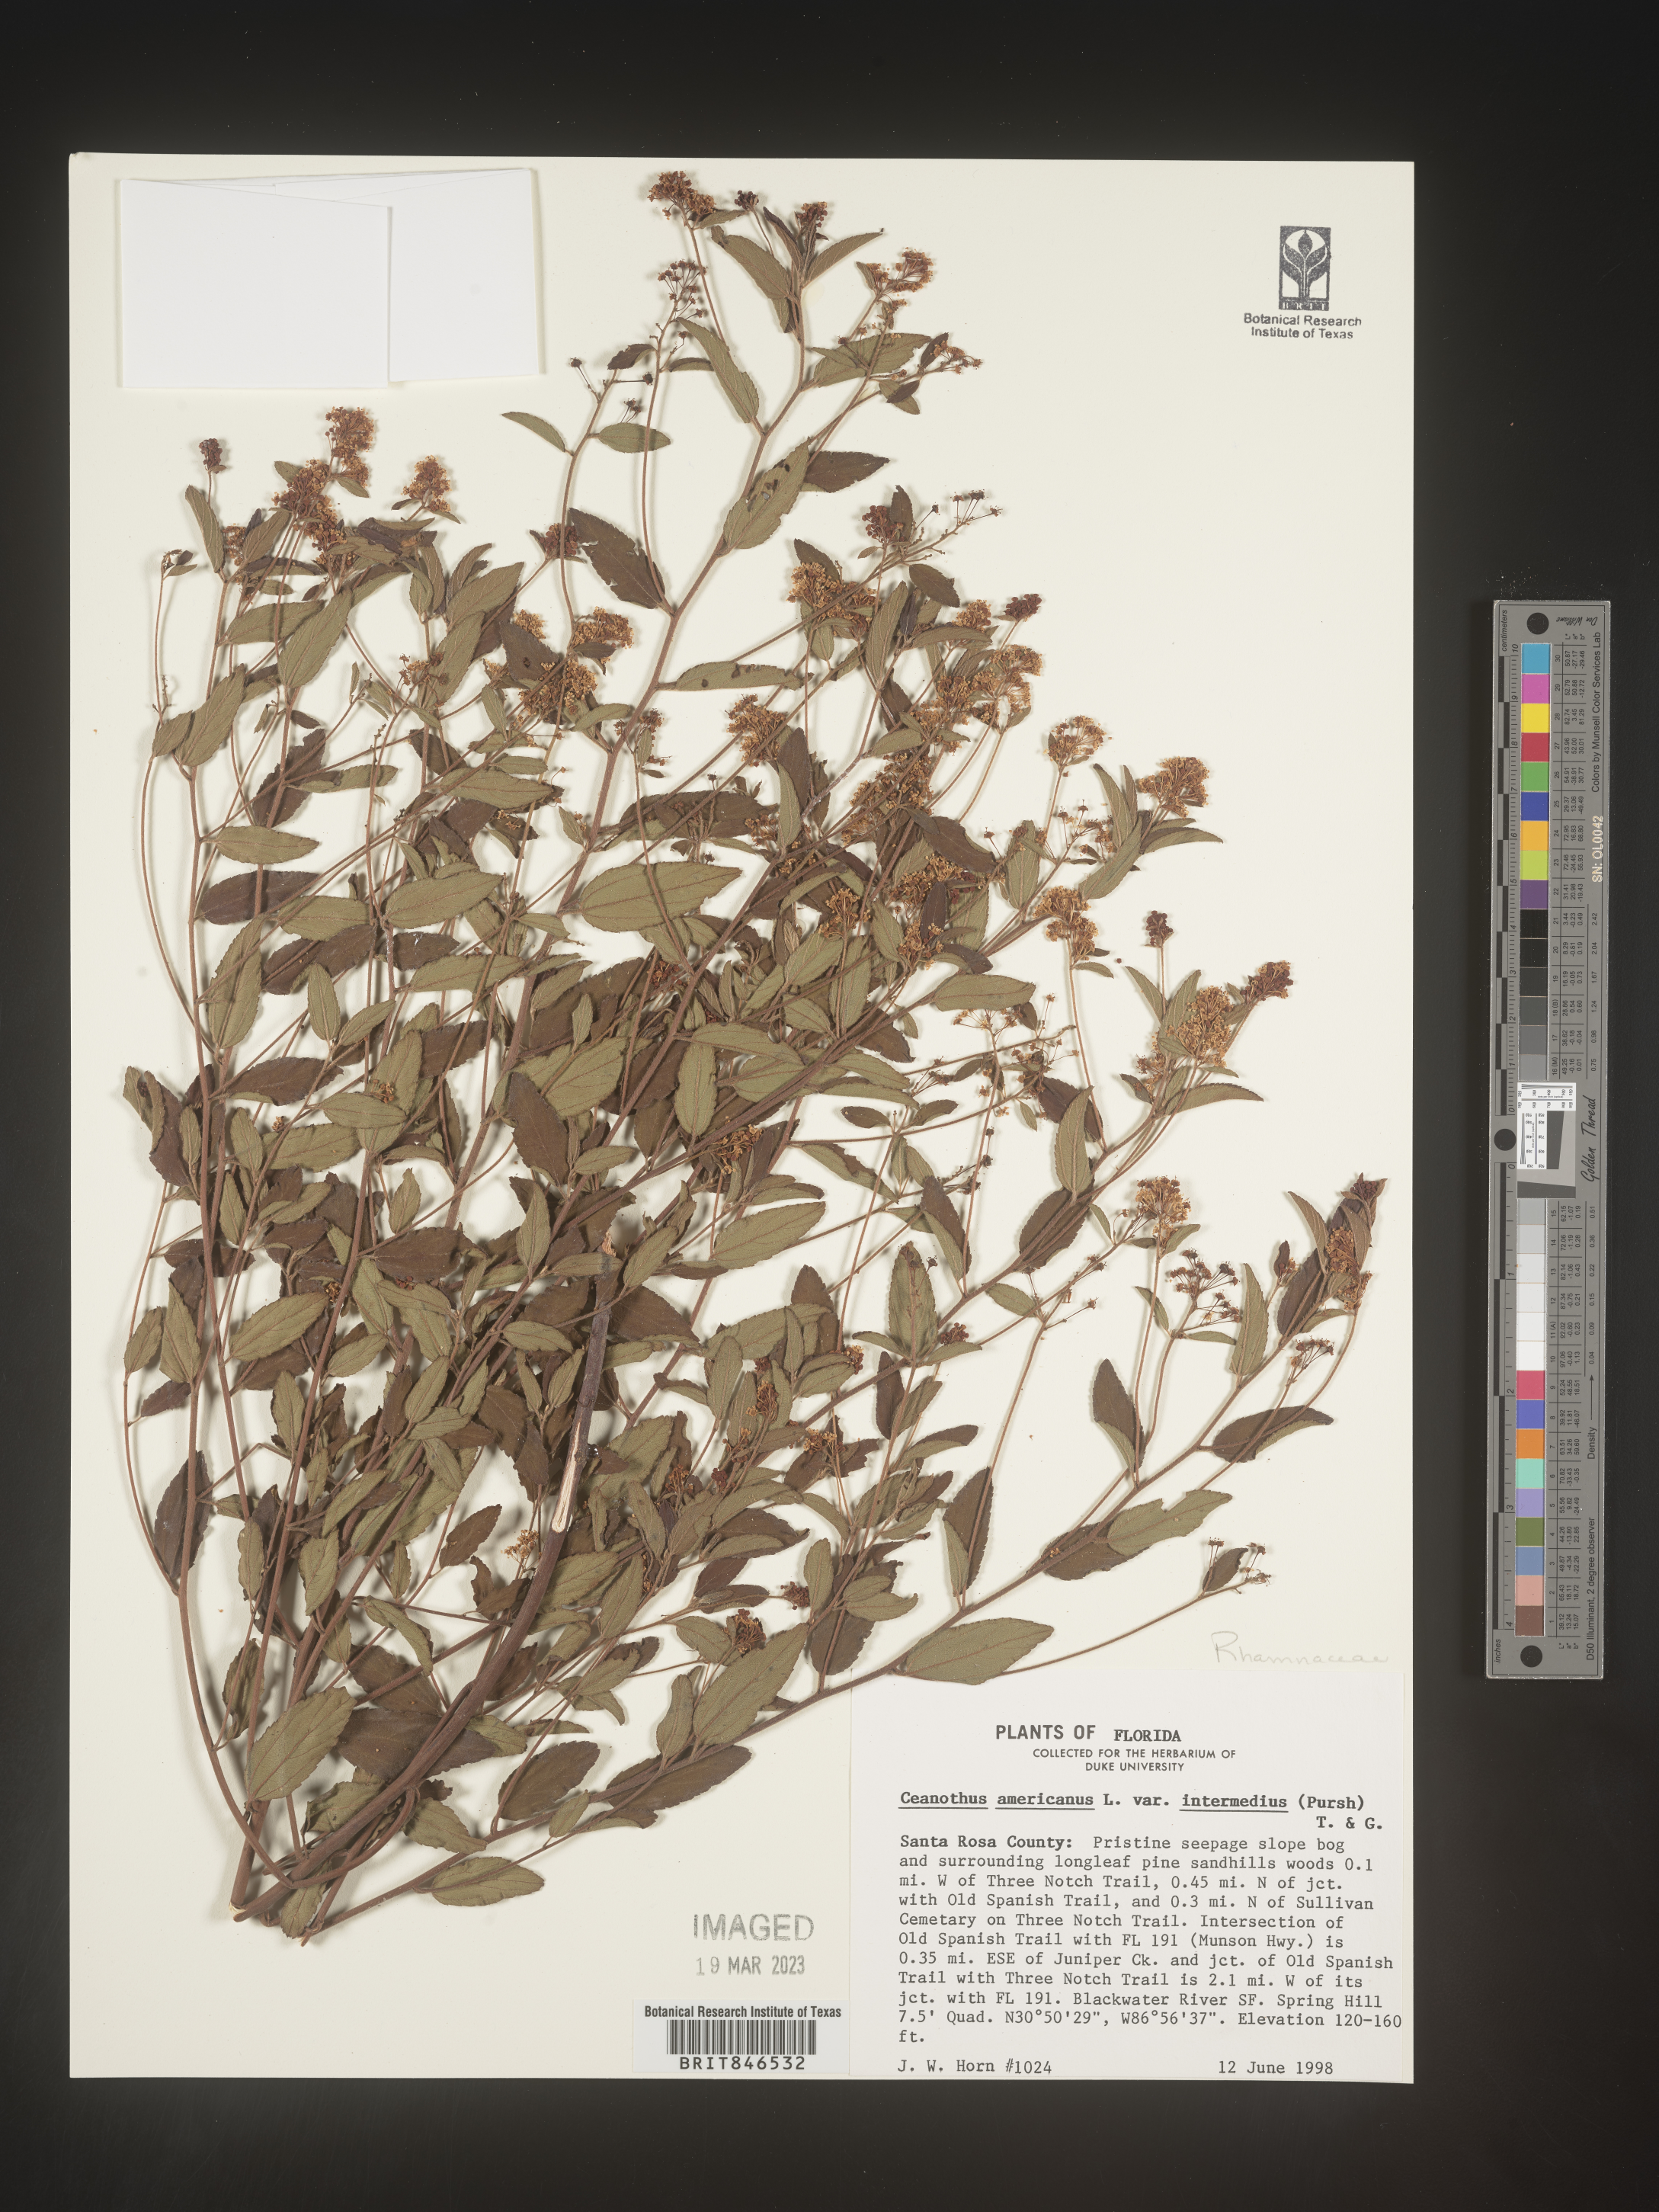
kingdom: Plantae
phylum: Tracheophyta
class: Magnoliopsida
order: Rosales
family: Rhamnaceae
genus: Ceanothus
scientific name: Ceanothus americanus
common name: Redroot
